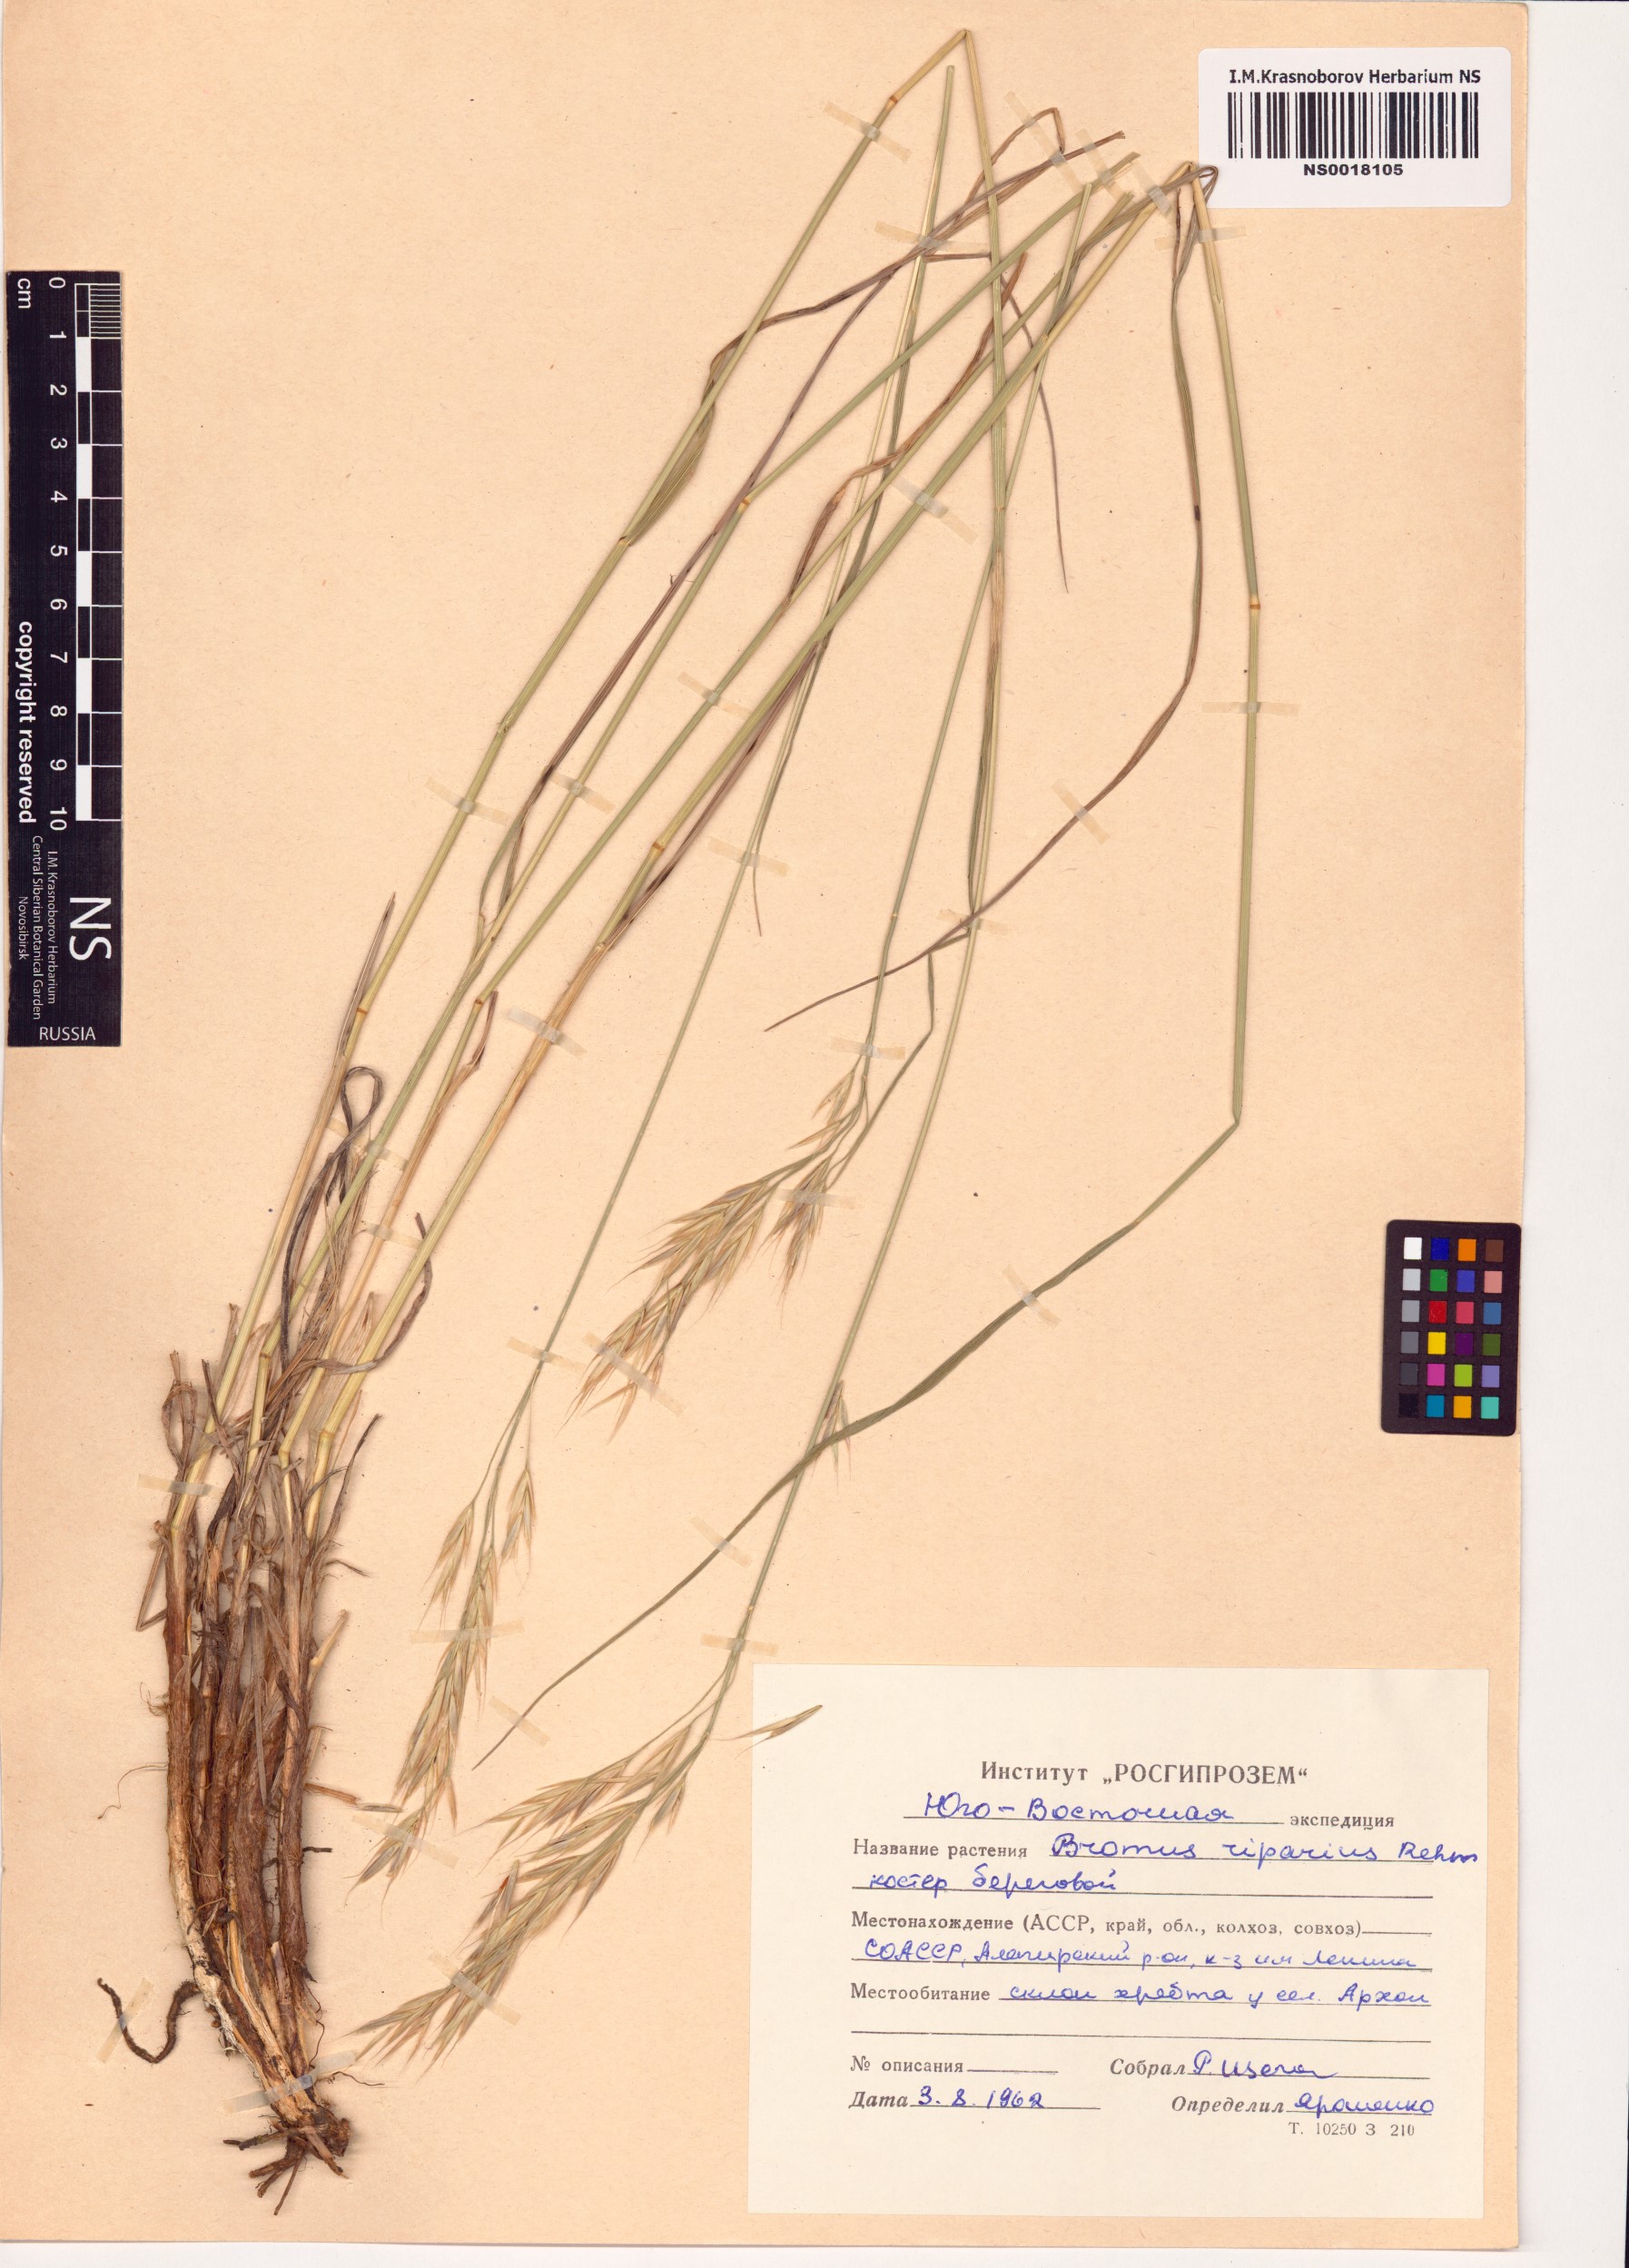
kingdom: Plantae
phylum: Tracheophyta
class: Liliopsida
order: Poales
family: Poaceae
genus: Bromus
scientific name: Bromus riparius
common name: Meadow brome
